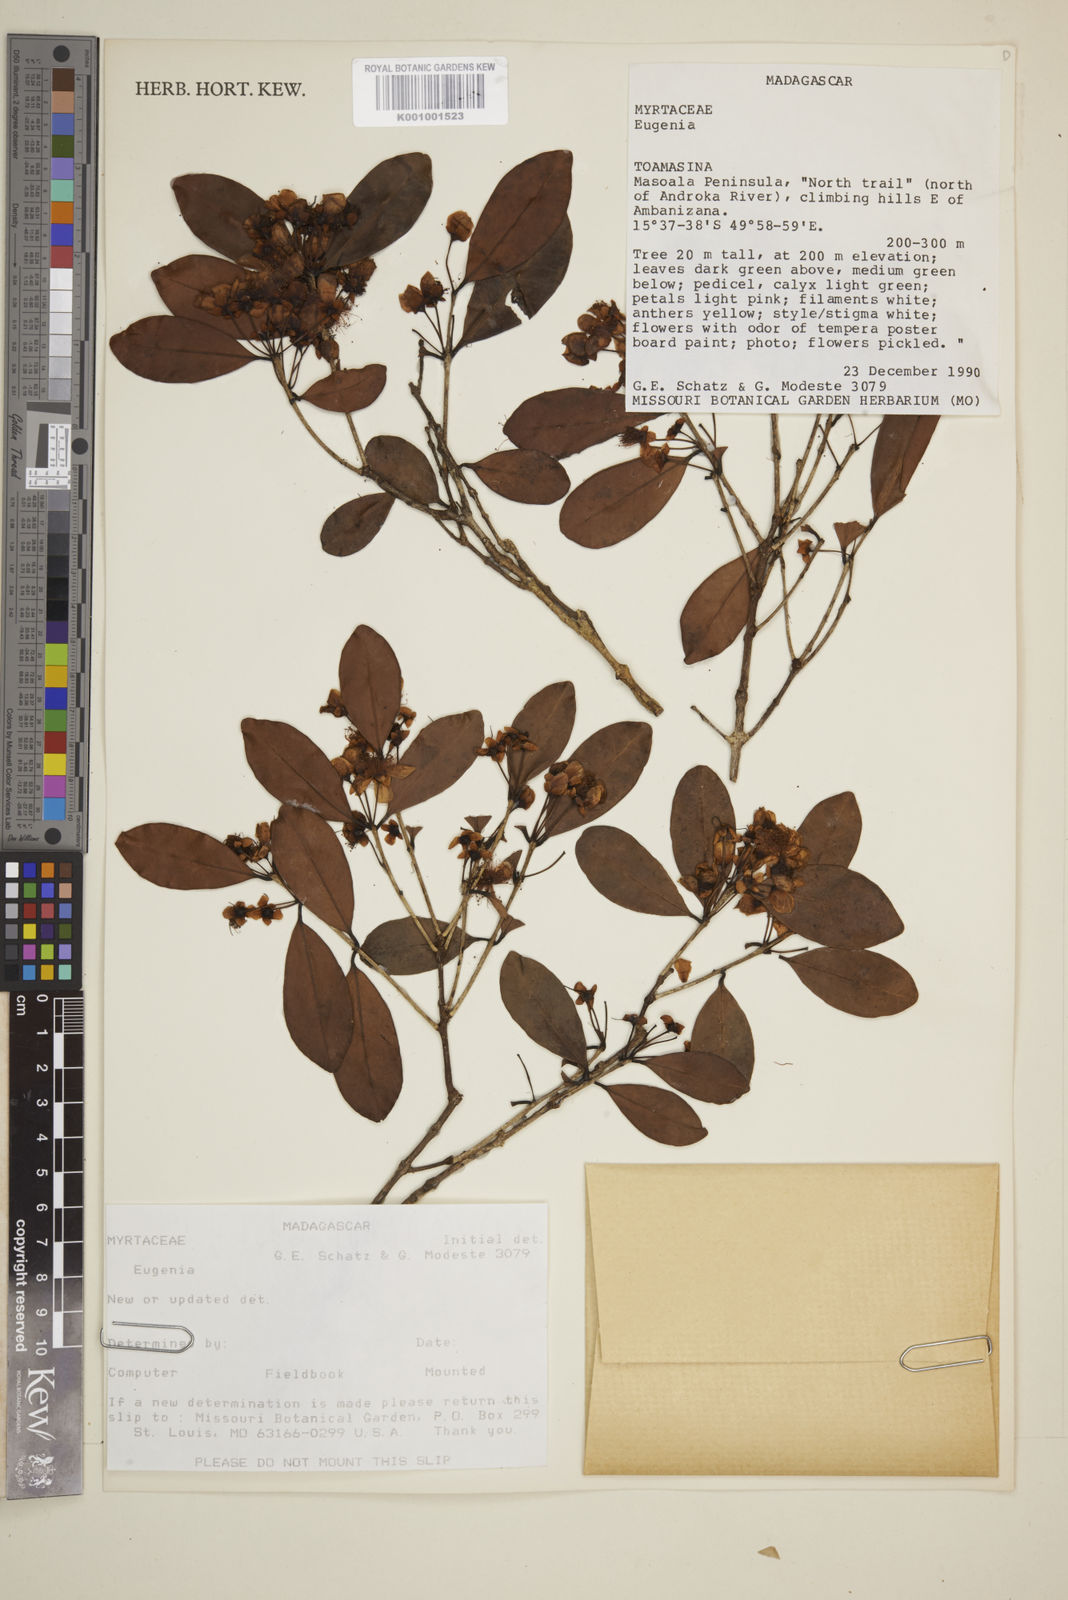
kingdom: Plantae
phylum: Tracheophyta
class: Magnoliopsida
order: Myrtales
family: Myrtaceae
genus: Eugenia
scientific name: Eugenia
